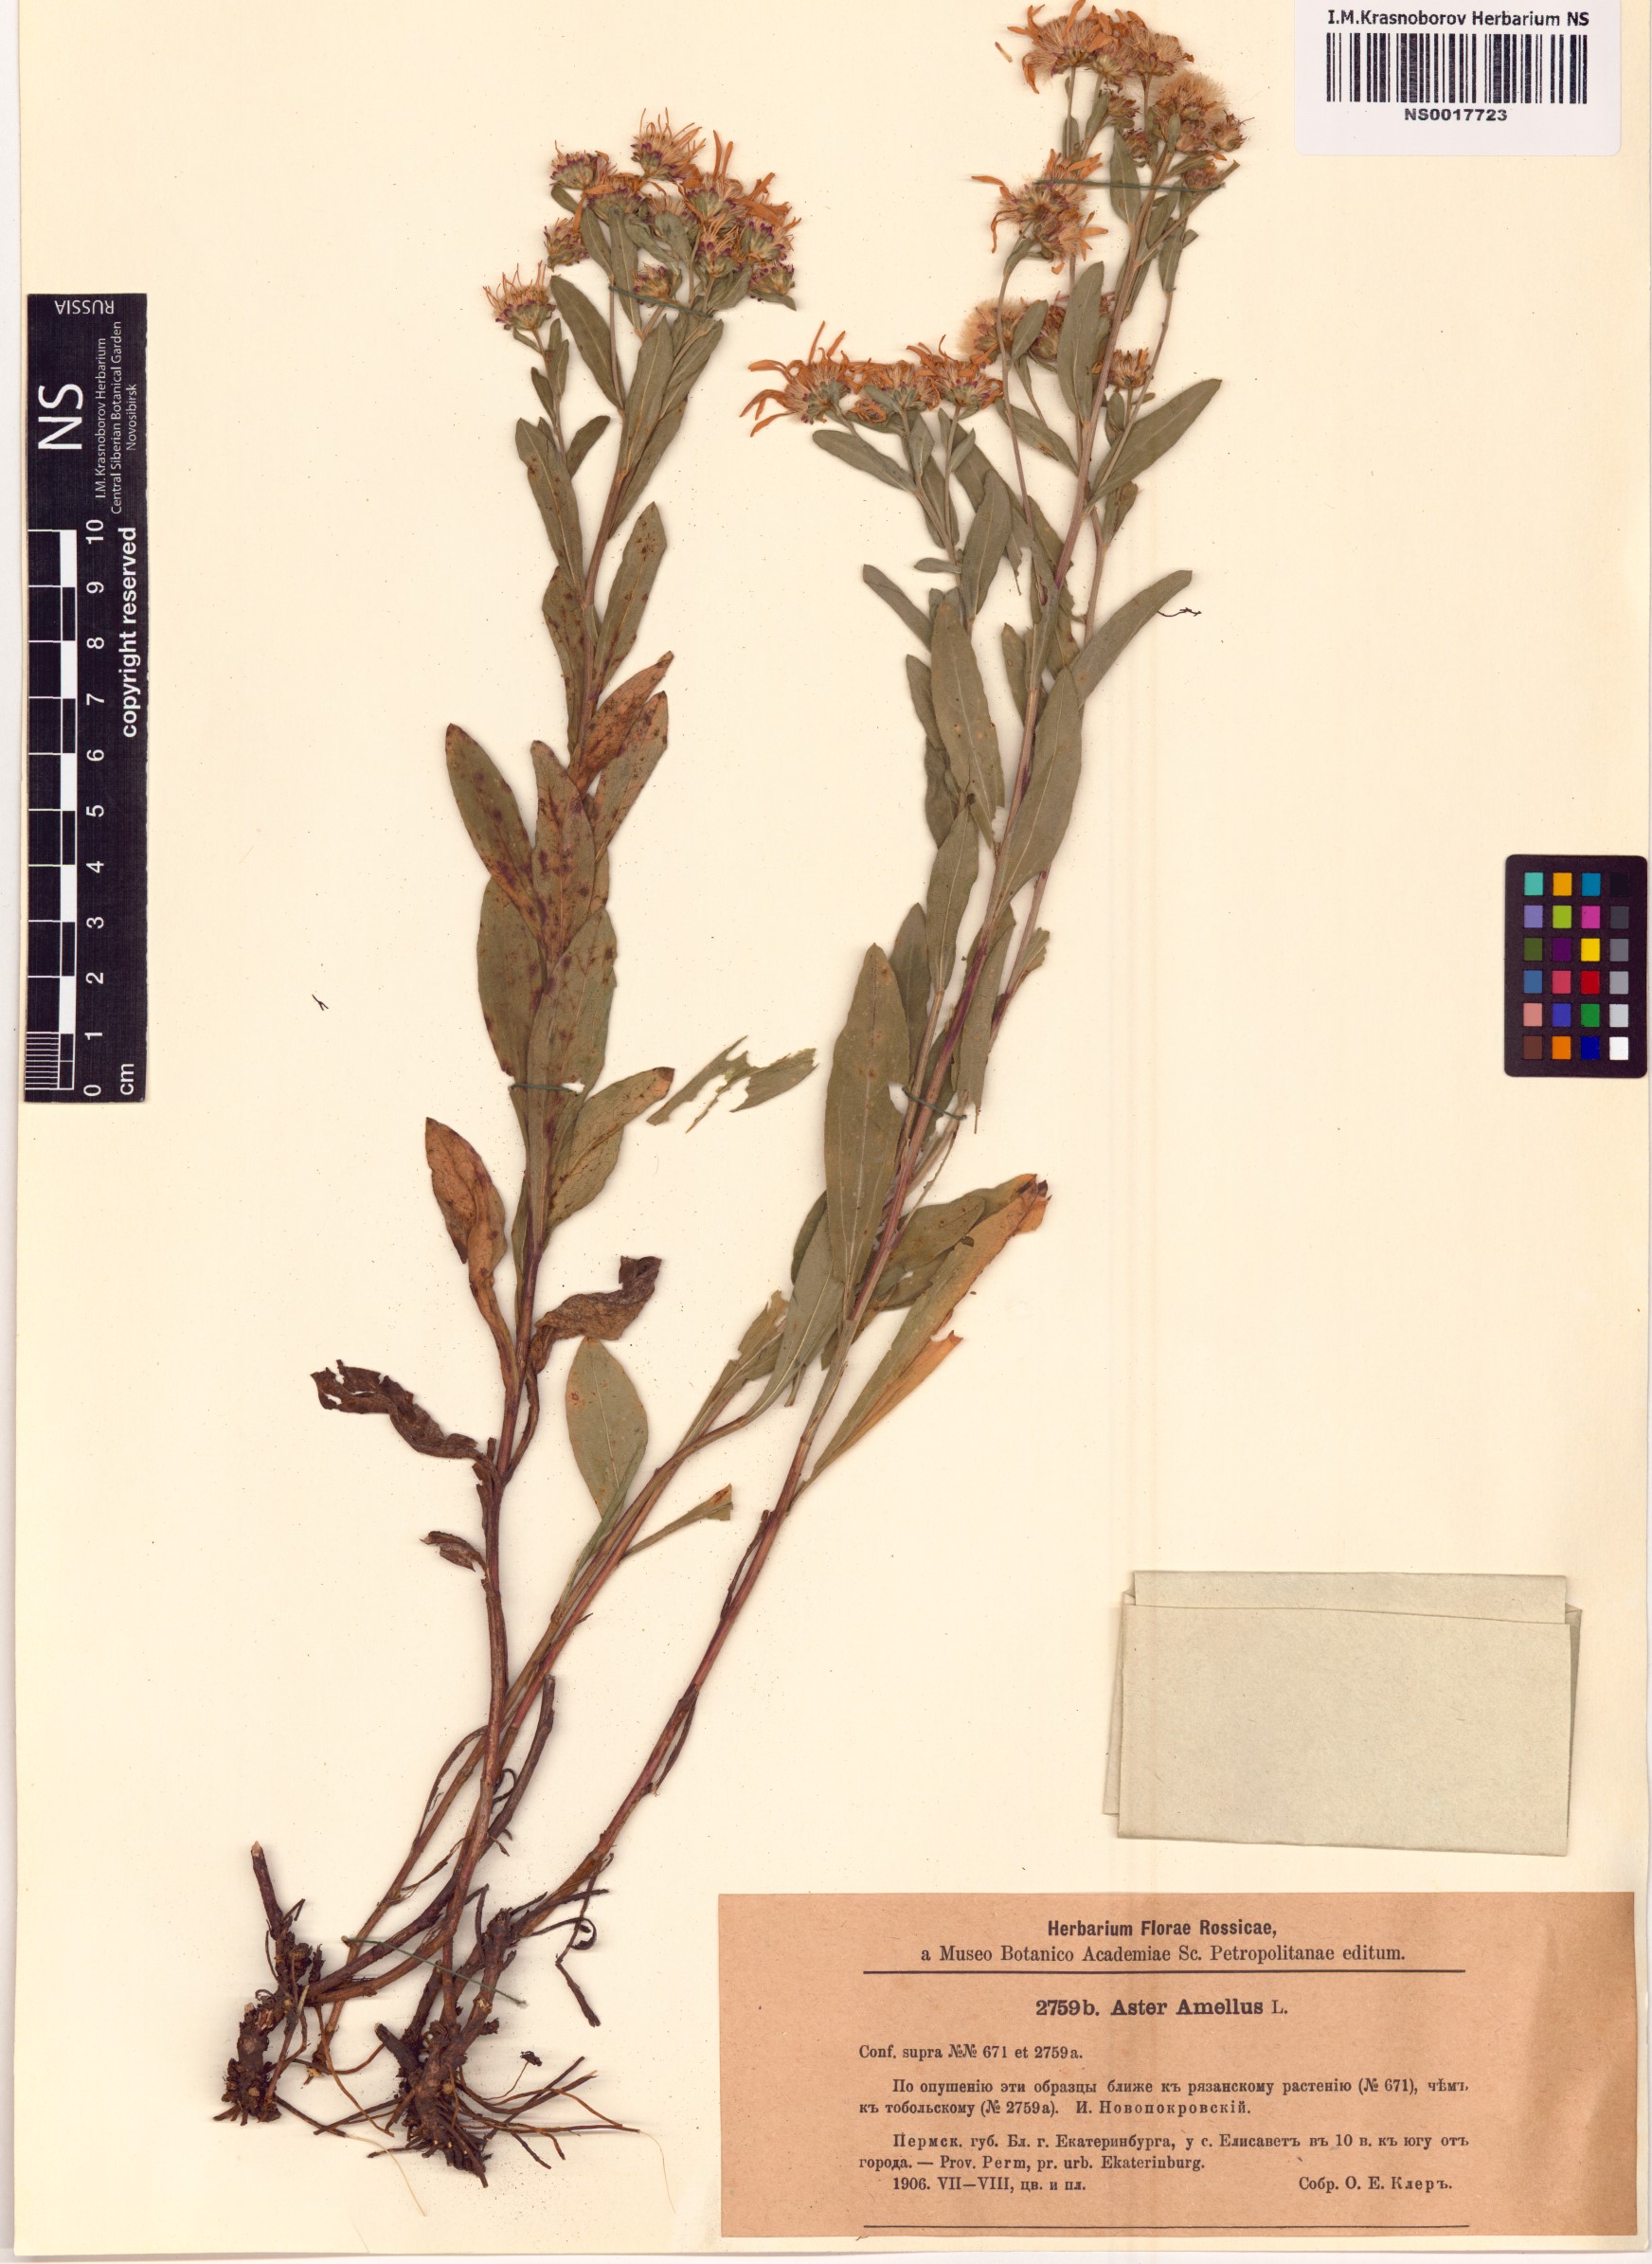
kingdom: Plantae
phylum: Tracheophyta
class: Magnoliopsida
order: Asterales
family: Asteraceae
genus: Aster
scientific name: Aster amellus
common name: European michaelmas daisy
